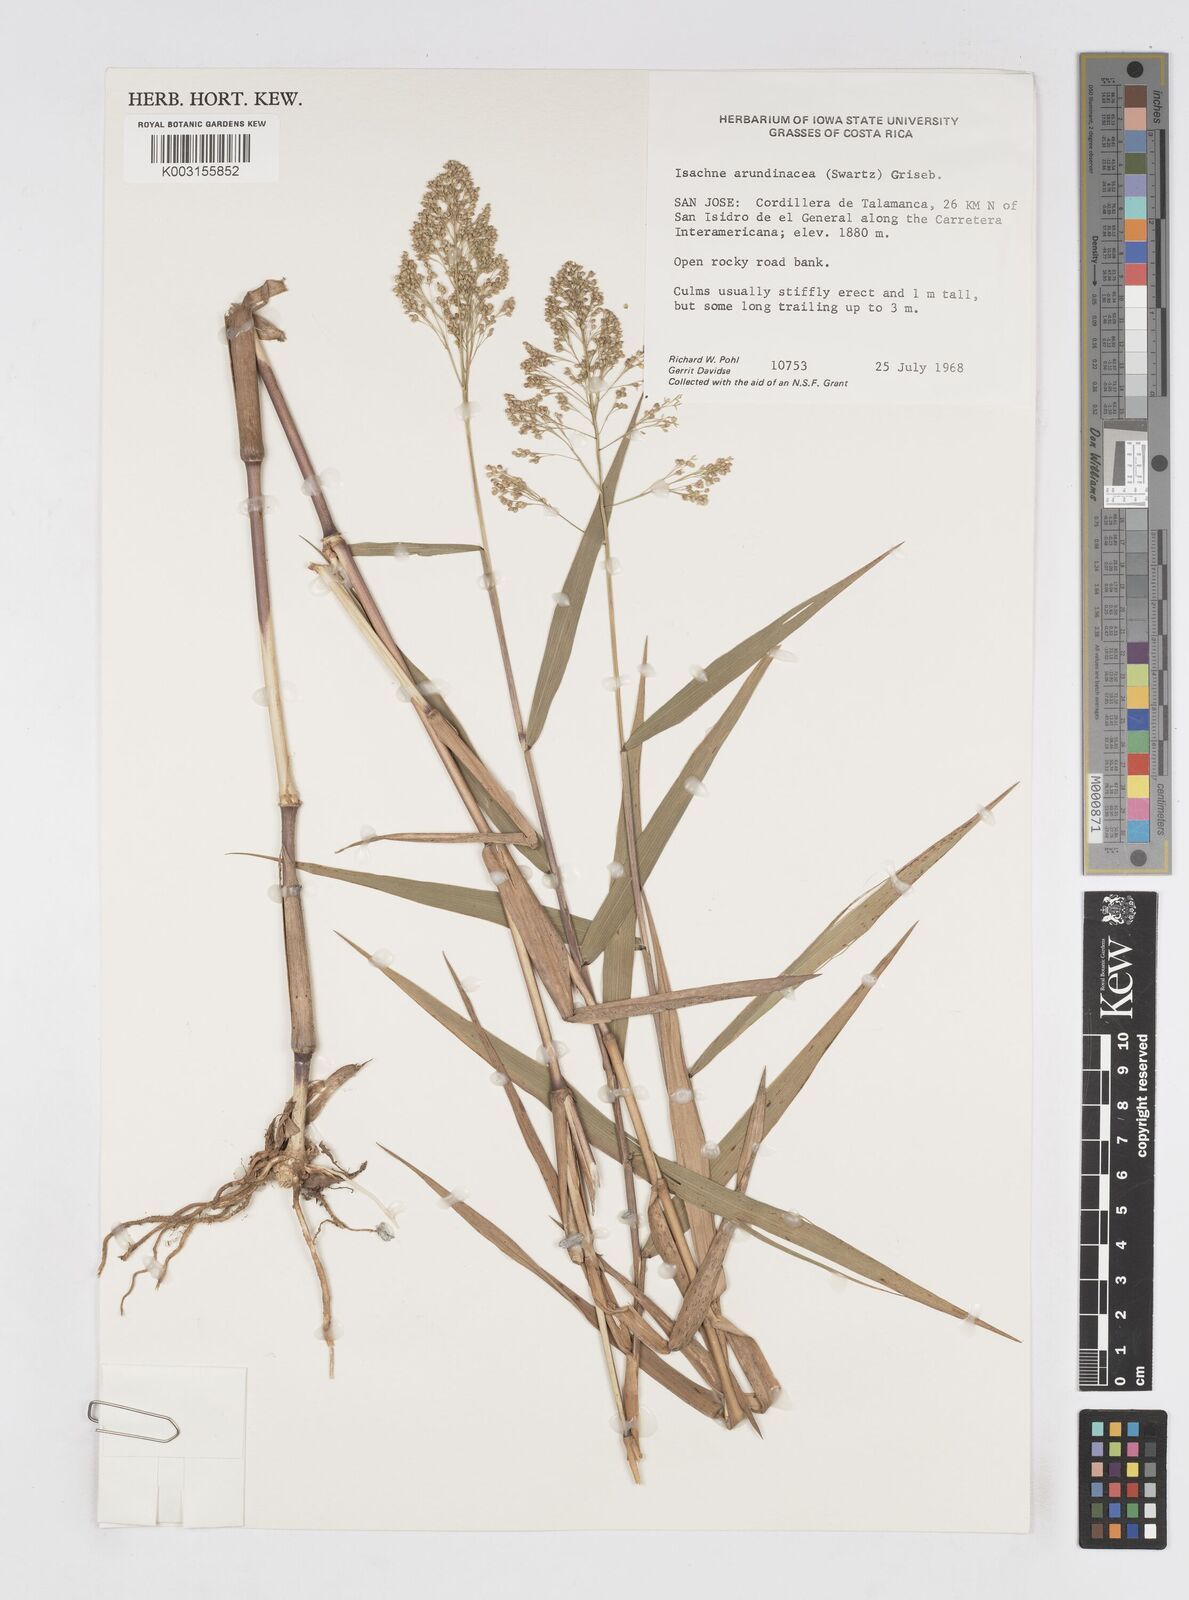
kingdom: Plantae
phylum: Tracheophyta
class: Liliopsida
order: Poales
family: Poaceae
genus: Isachne
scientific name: Isachne arundinacea
